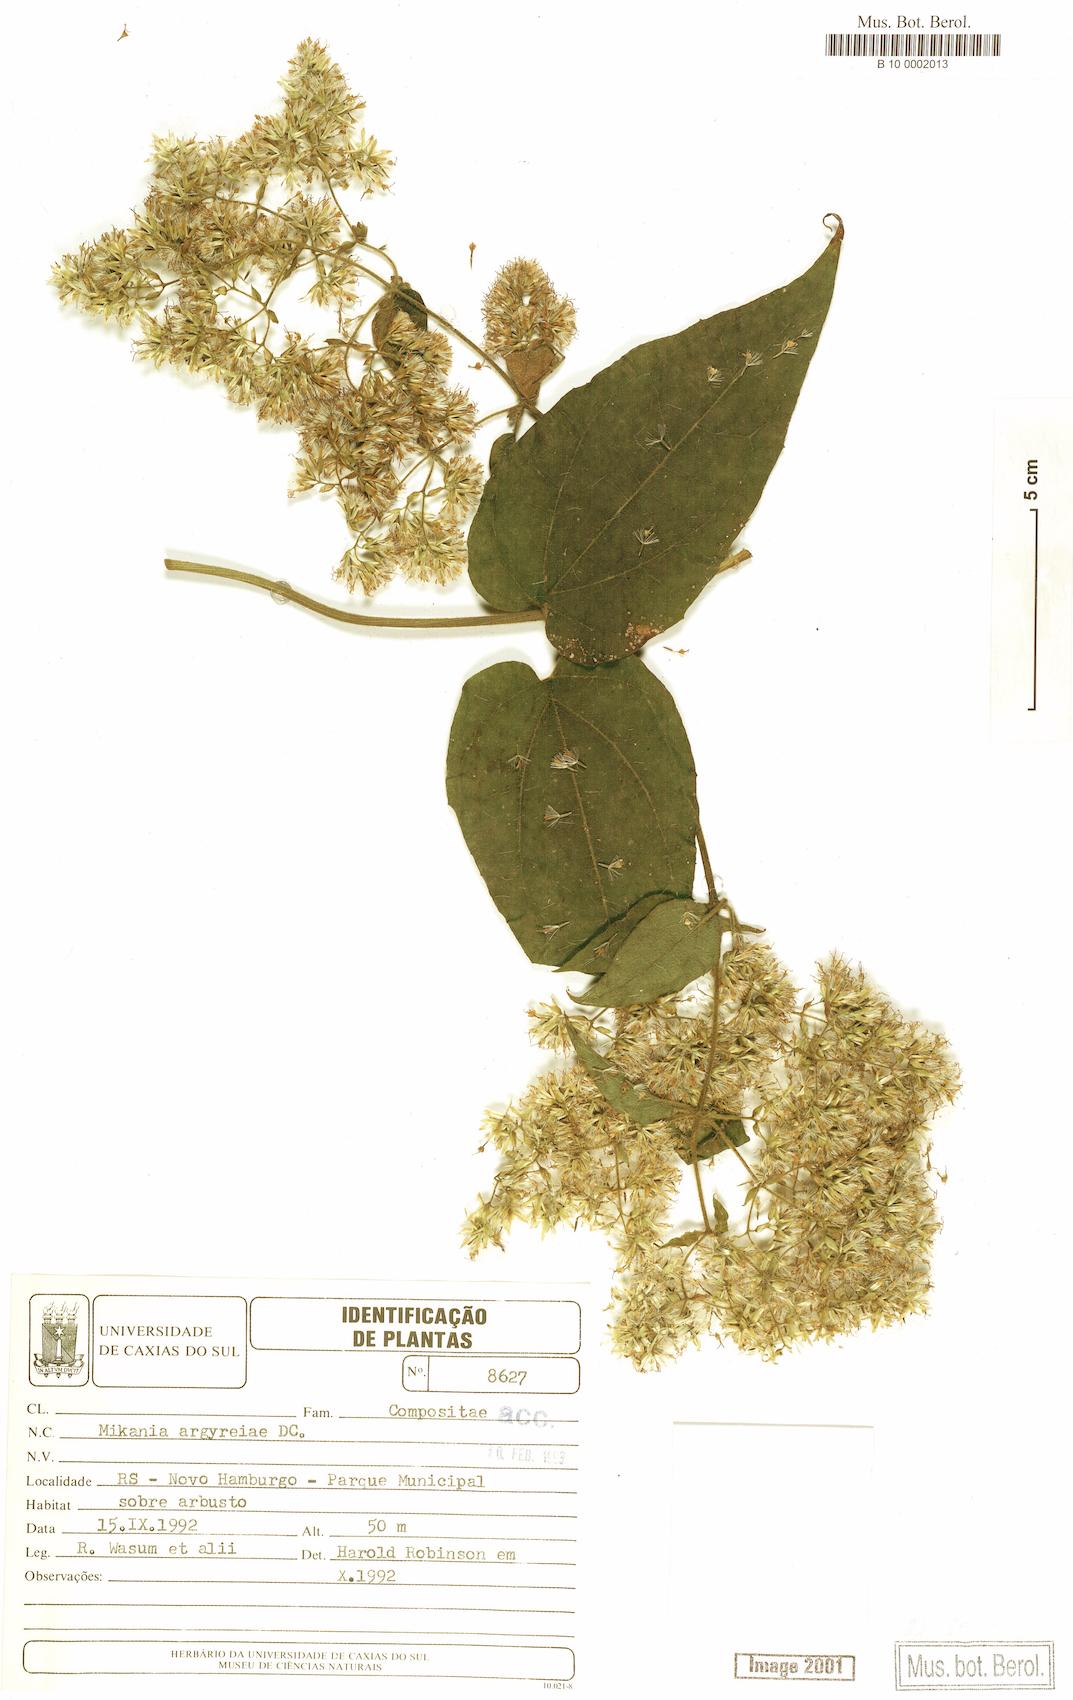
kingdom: Plantae
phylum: Tracheophyta
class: Magnoliopsida
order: Asterales
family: Asteraceae
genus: Mikania
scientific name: Mikania argyreiae
